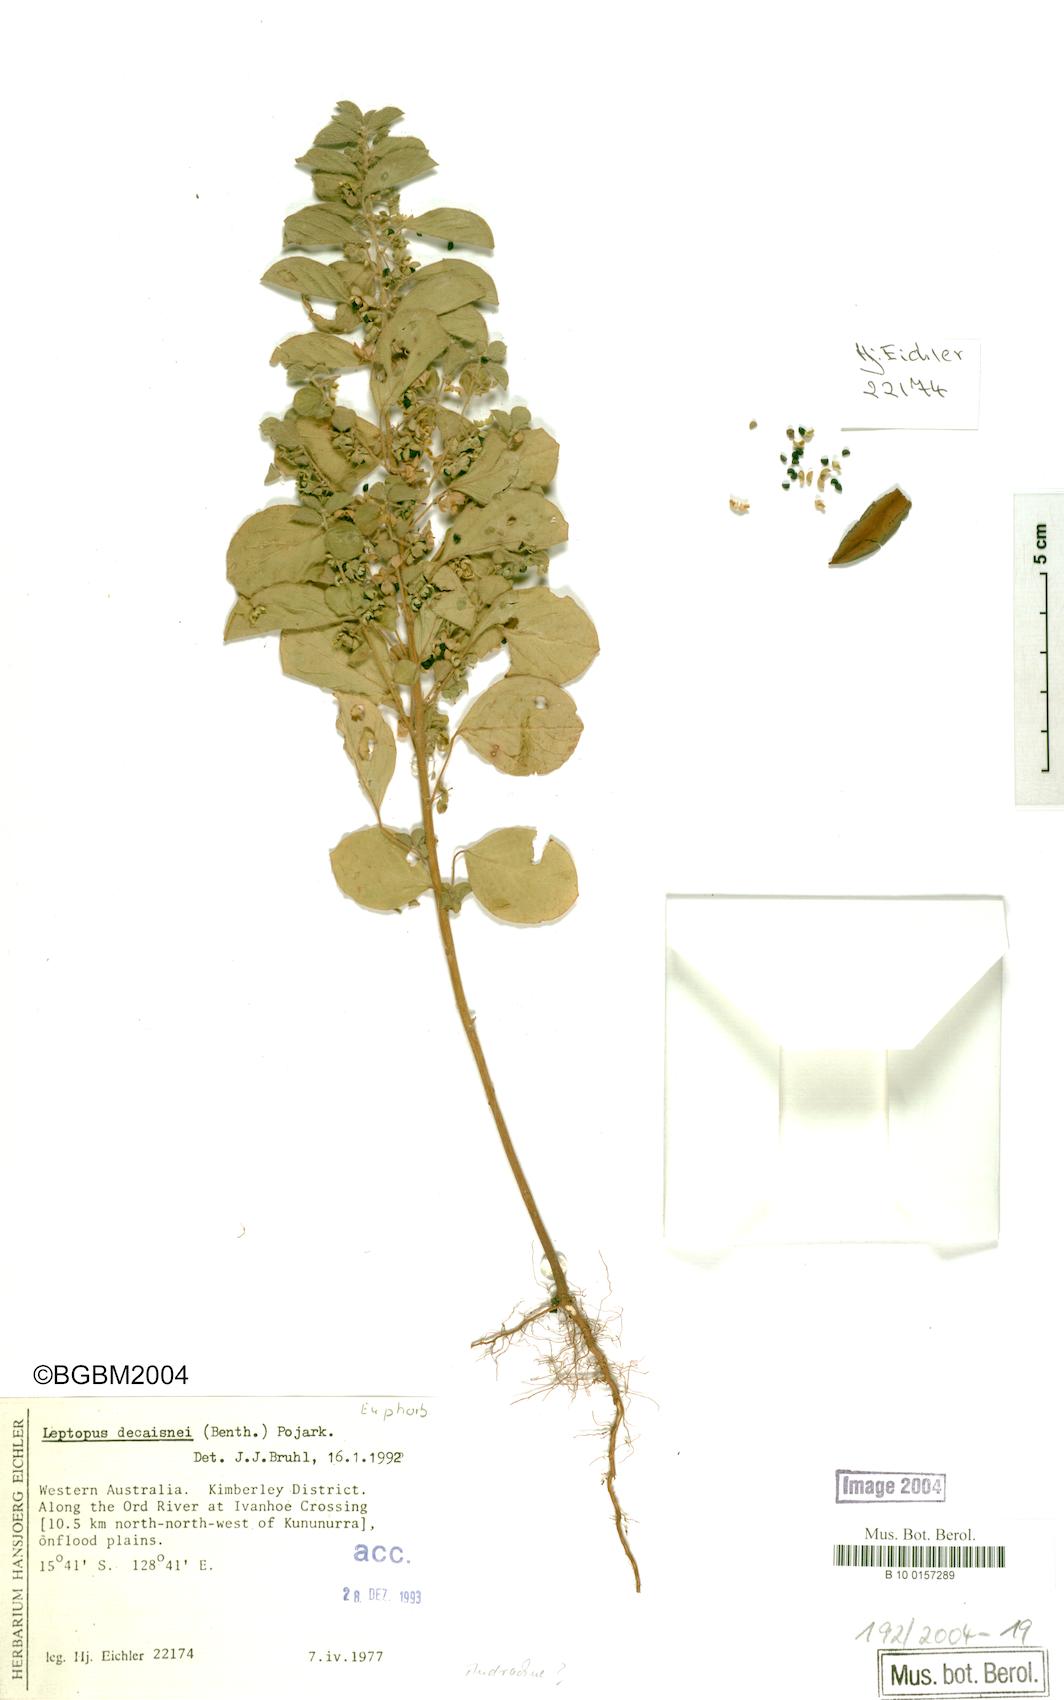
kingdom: Plantae
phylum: Tracheophyta
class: Magnoliopsida
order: Malpighiales
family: Phyllanthaceae
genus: Notoleptopus
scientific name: Notoleptopus decaisnei
